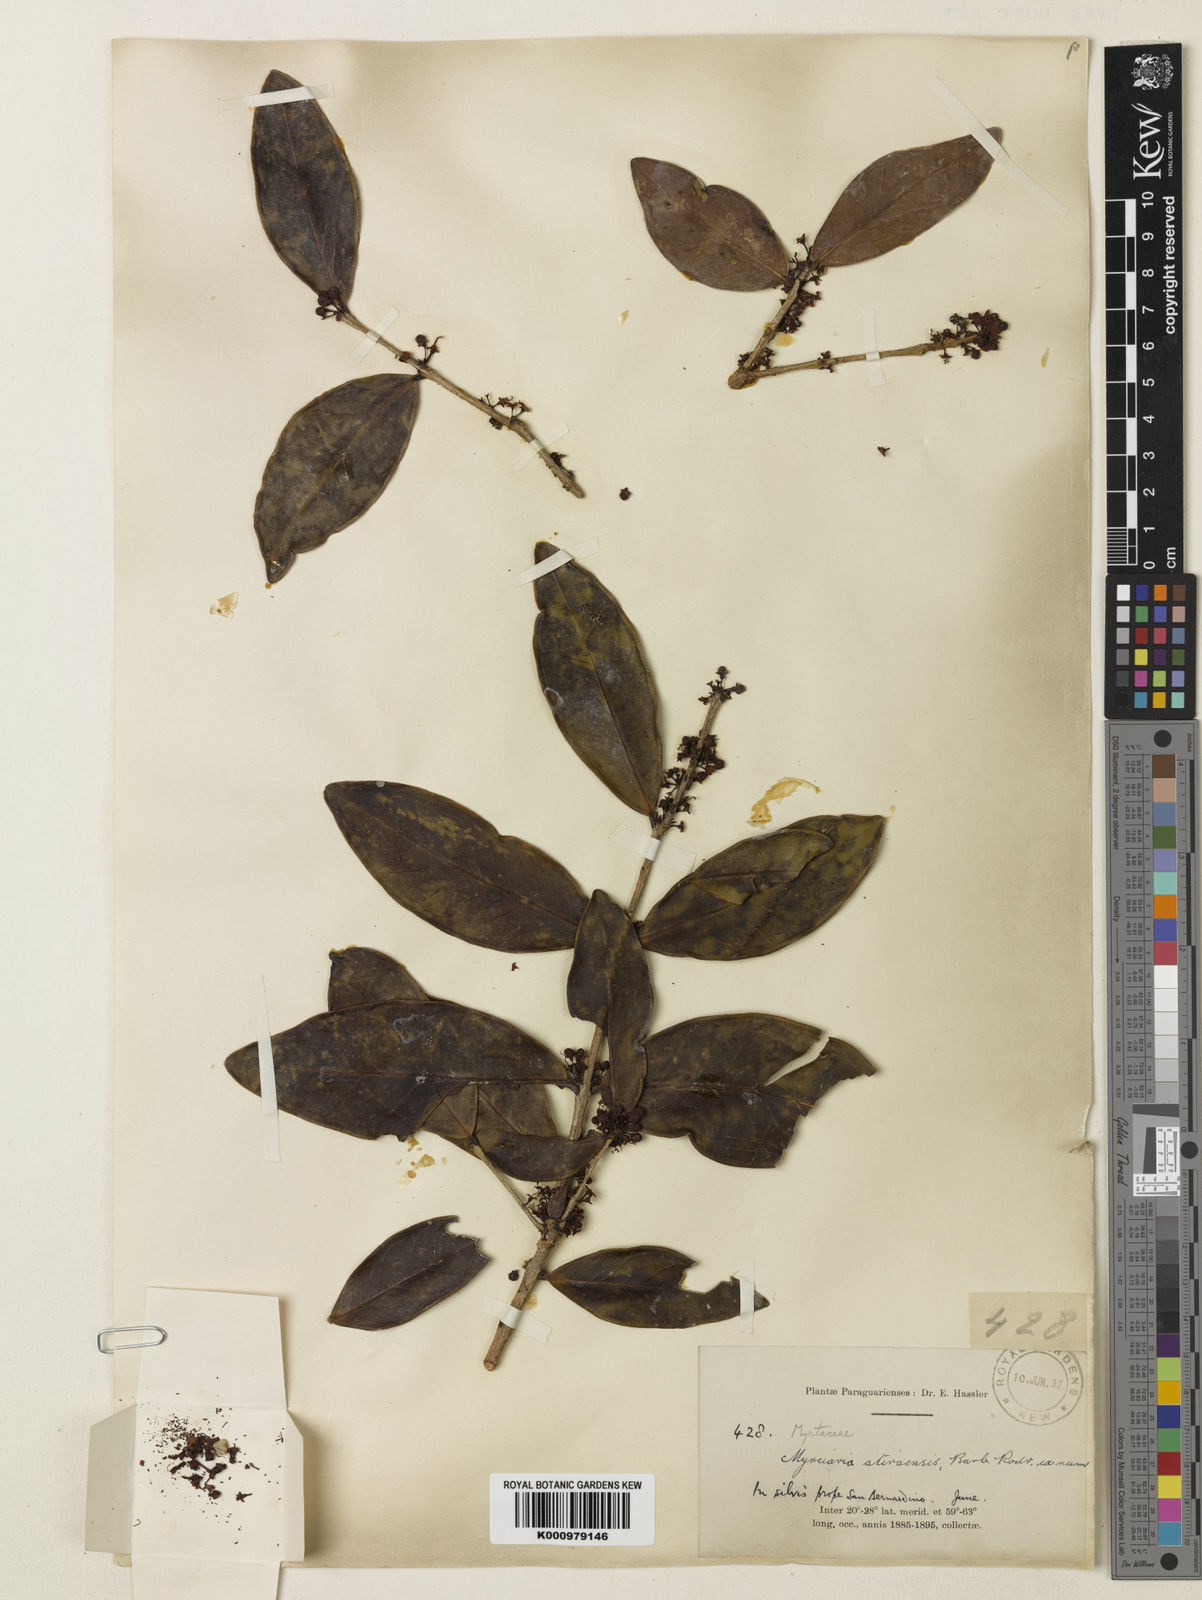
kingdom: Plantae
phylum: Tracheophyta
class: Magnoliopsida
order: Myrtales
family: Myrtaceae
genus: Eugenia
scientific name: Eugenia bimarginata
